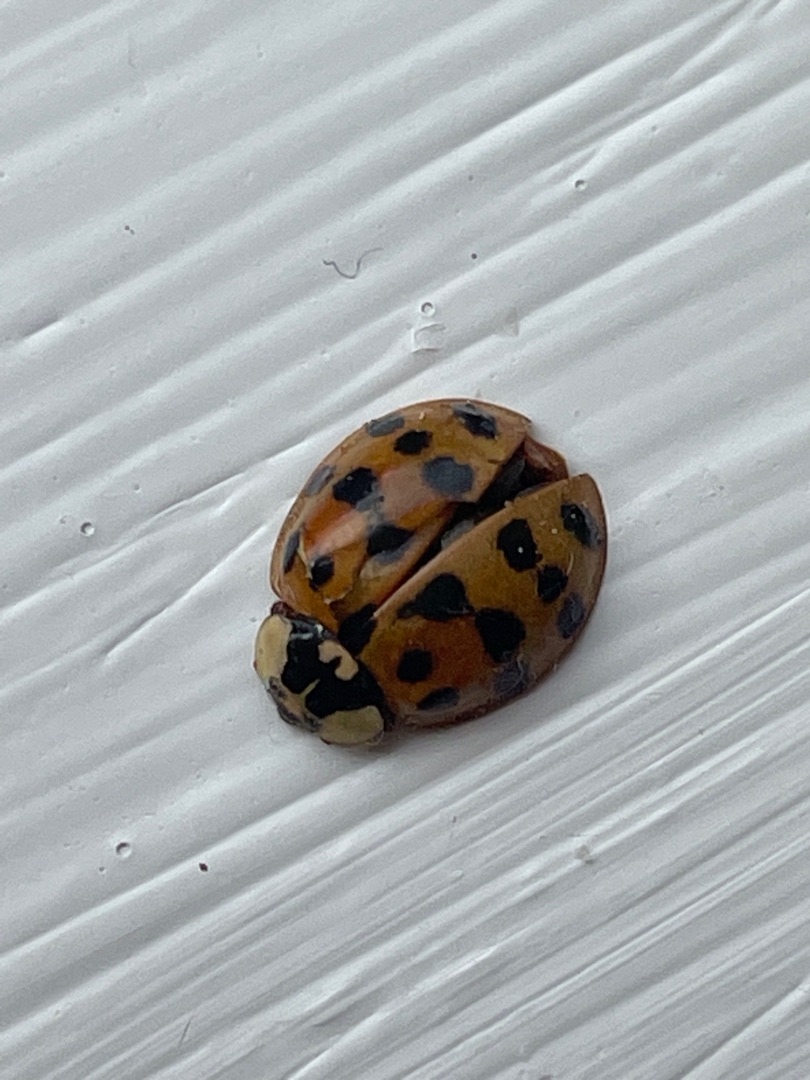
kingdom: Animalia
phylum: Arthropoda
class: Insecta
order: Coleoptera
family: Coccinellidae
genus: Harmonia
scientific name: Harmonia axyridis
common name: Harlekinmariehøne
